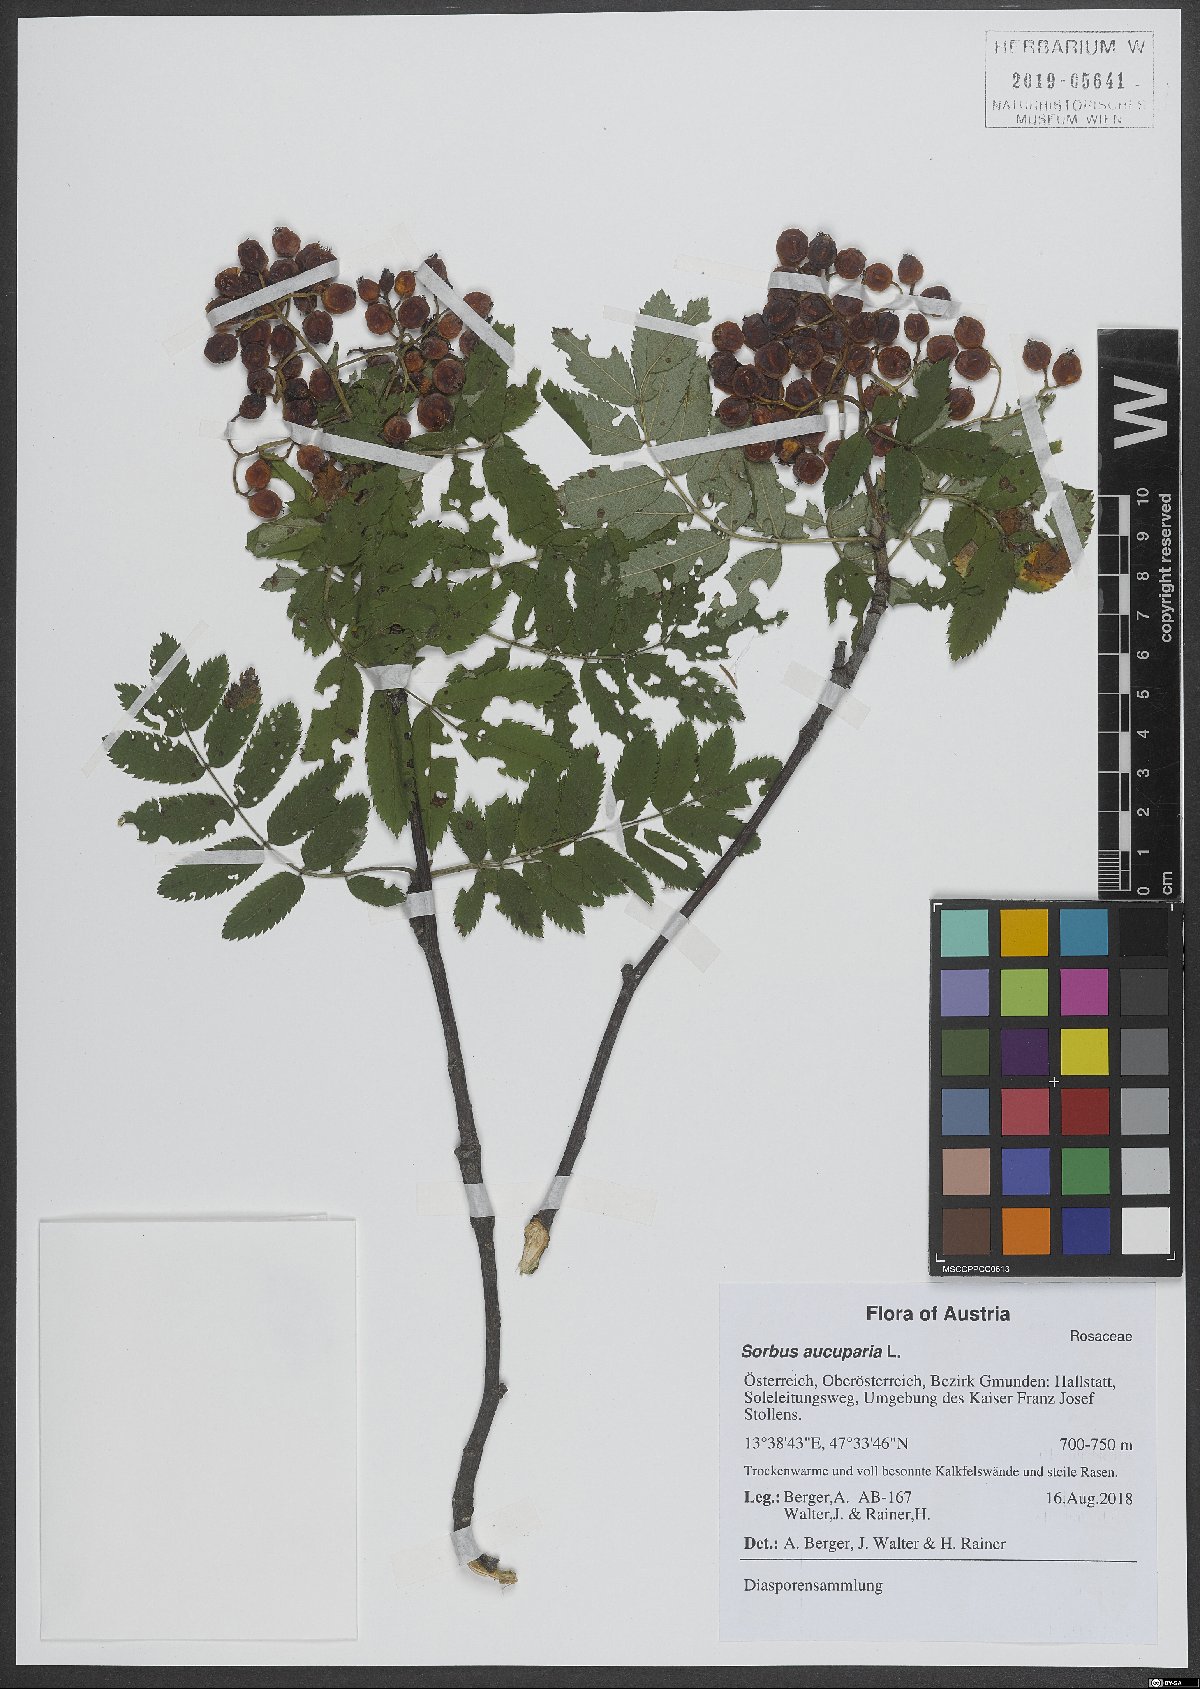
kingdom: Plantae
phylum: Tracheophyta
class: Magnoliopsida
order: Rosales
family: Rosaceae
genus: Sorbus
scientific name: Sorbus aucuparia
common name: Rowan
